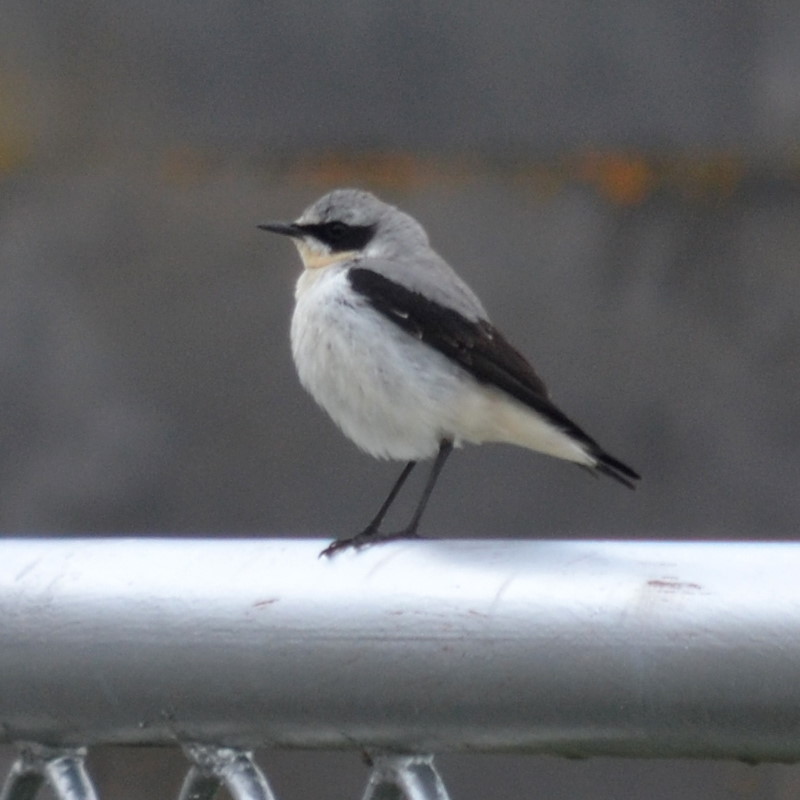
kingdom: Animalia
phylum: Chordata
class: Aves
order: Passeriformes
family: Muscicapidae
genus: Oenanthe
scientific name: Oenanthe hispanica
